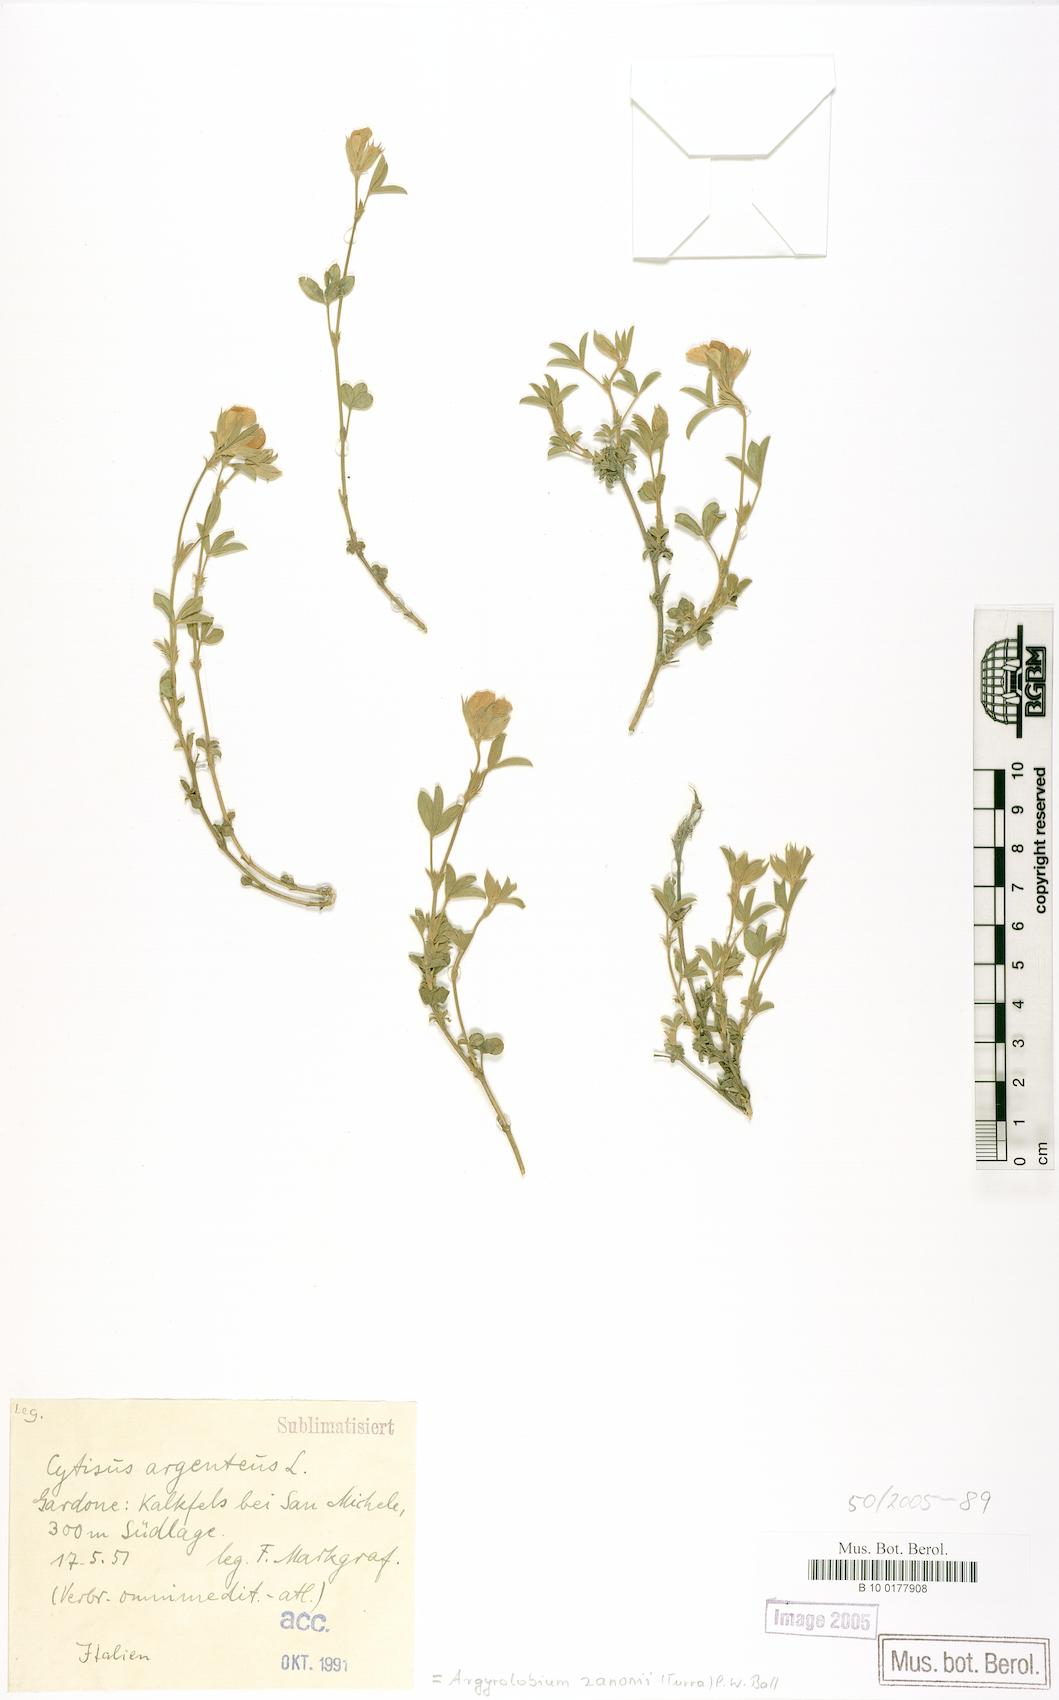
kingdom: Plantae
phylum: Tracheophyta
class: Magnoliopsida
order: Fabales
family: Fabaceae
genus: Argyrolobium
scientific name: Argyrolobium zanonii
